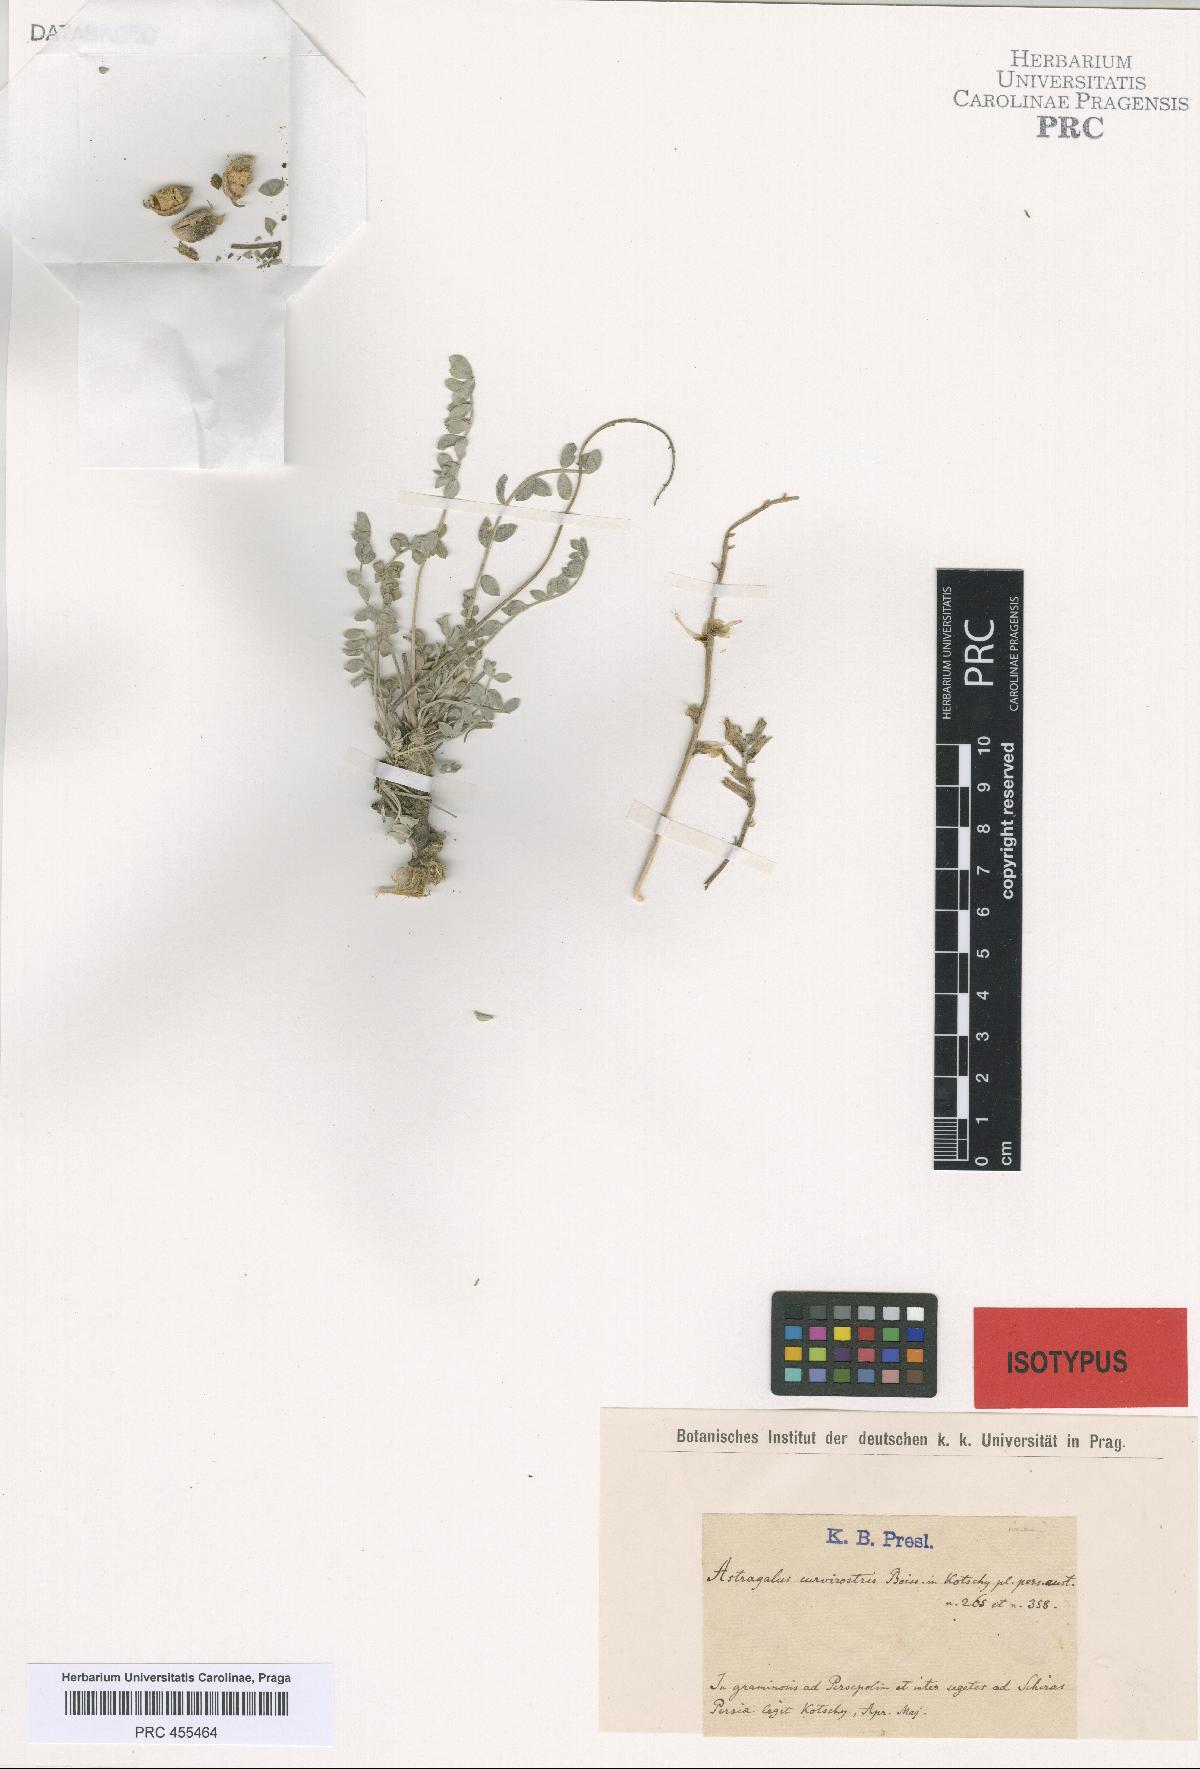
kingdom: Plantae
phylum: Tracheophyta
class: Magnoliopsida
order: Fabales
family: Fabaceae
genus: Astragalus
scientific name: Astragalus curvirostris
